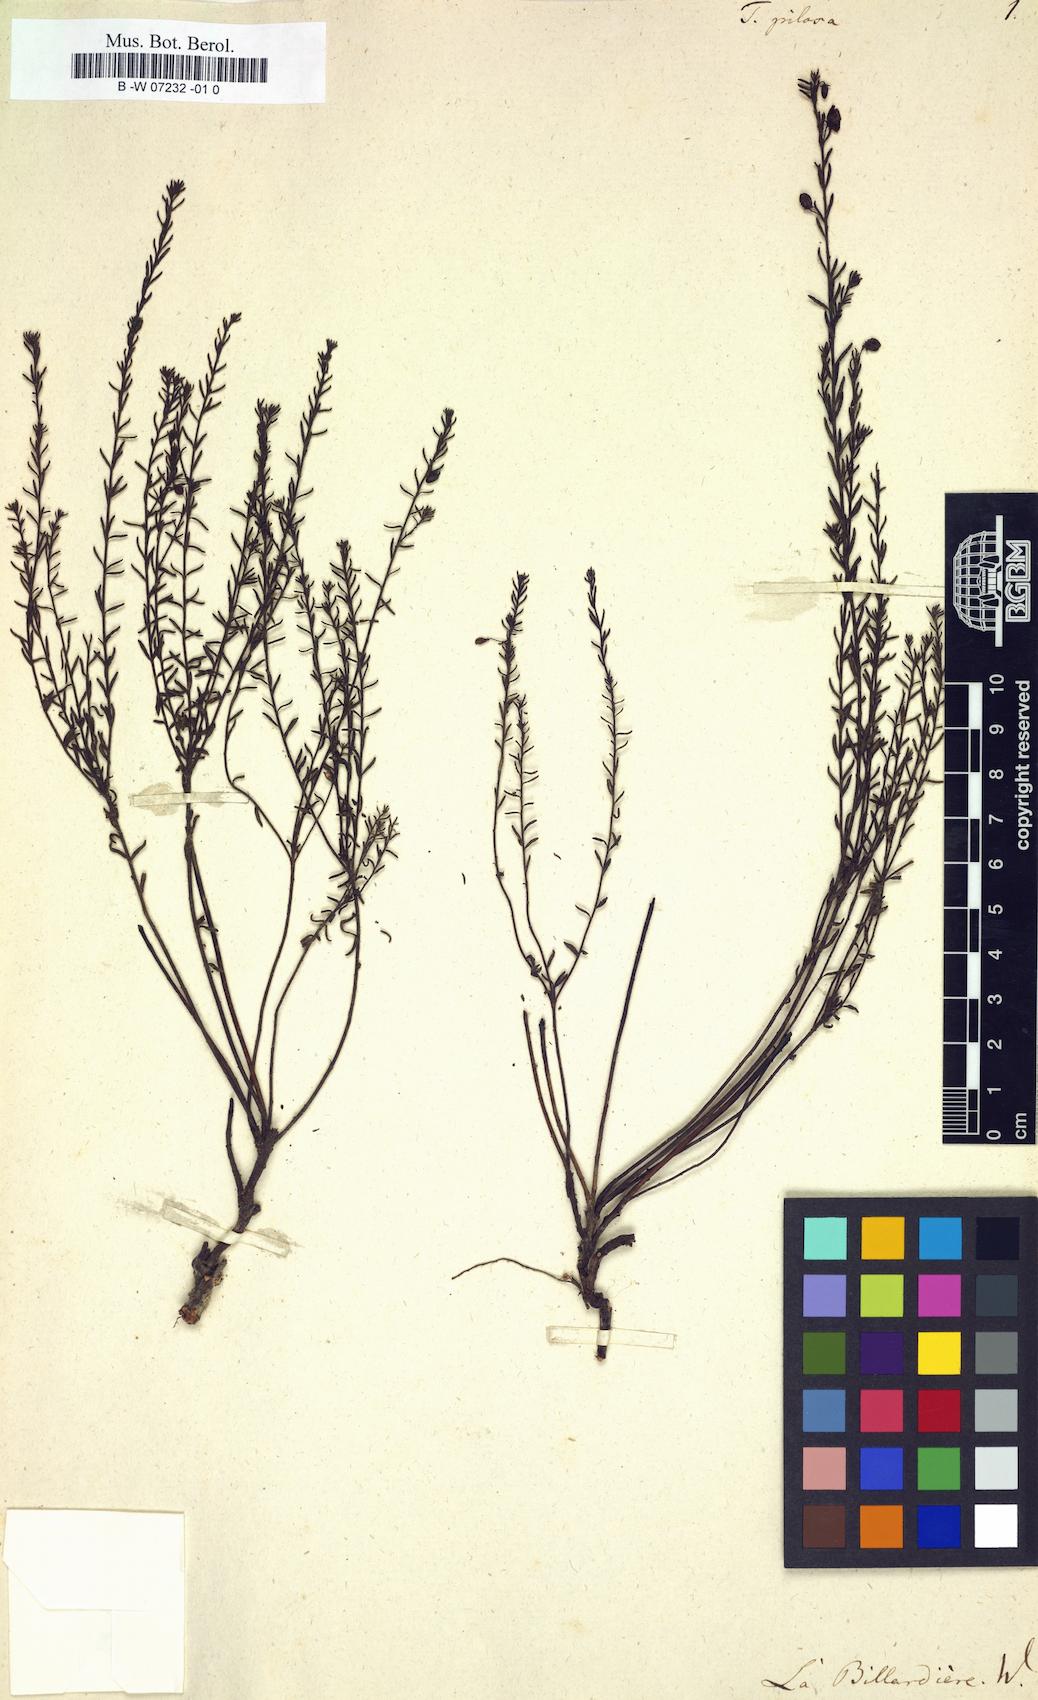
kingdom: Plantae
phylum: Tracheophyta
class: Magnoliopsida
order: Oxalidales
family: Elaeocarpaceae
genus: Tetratheca
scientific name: Tetratheca pilosa
